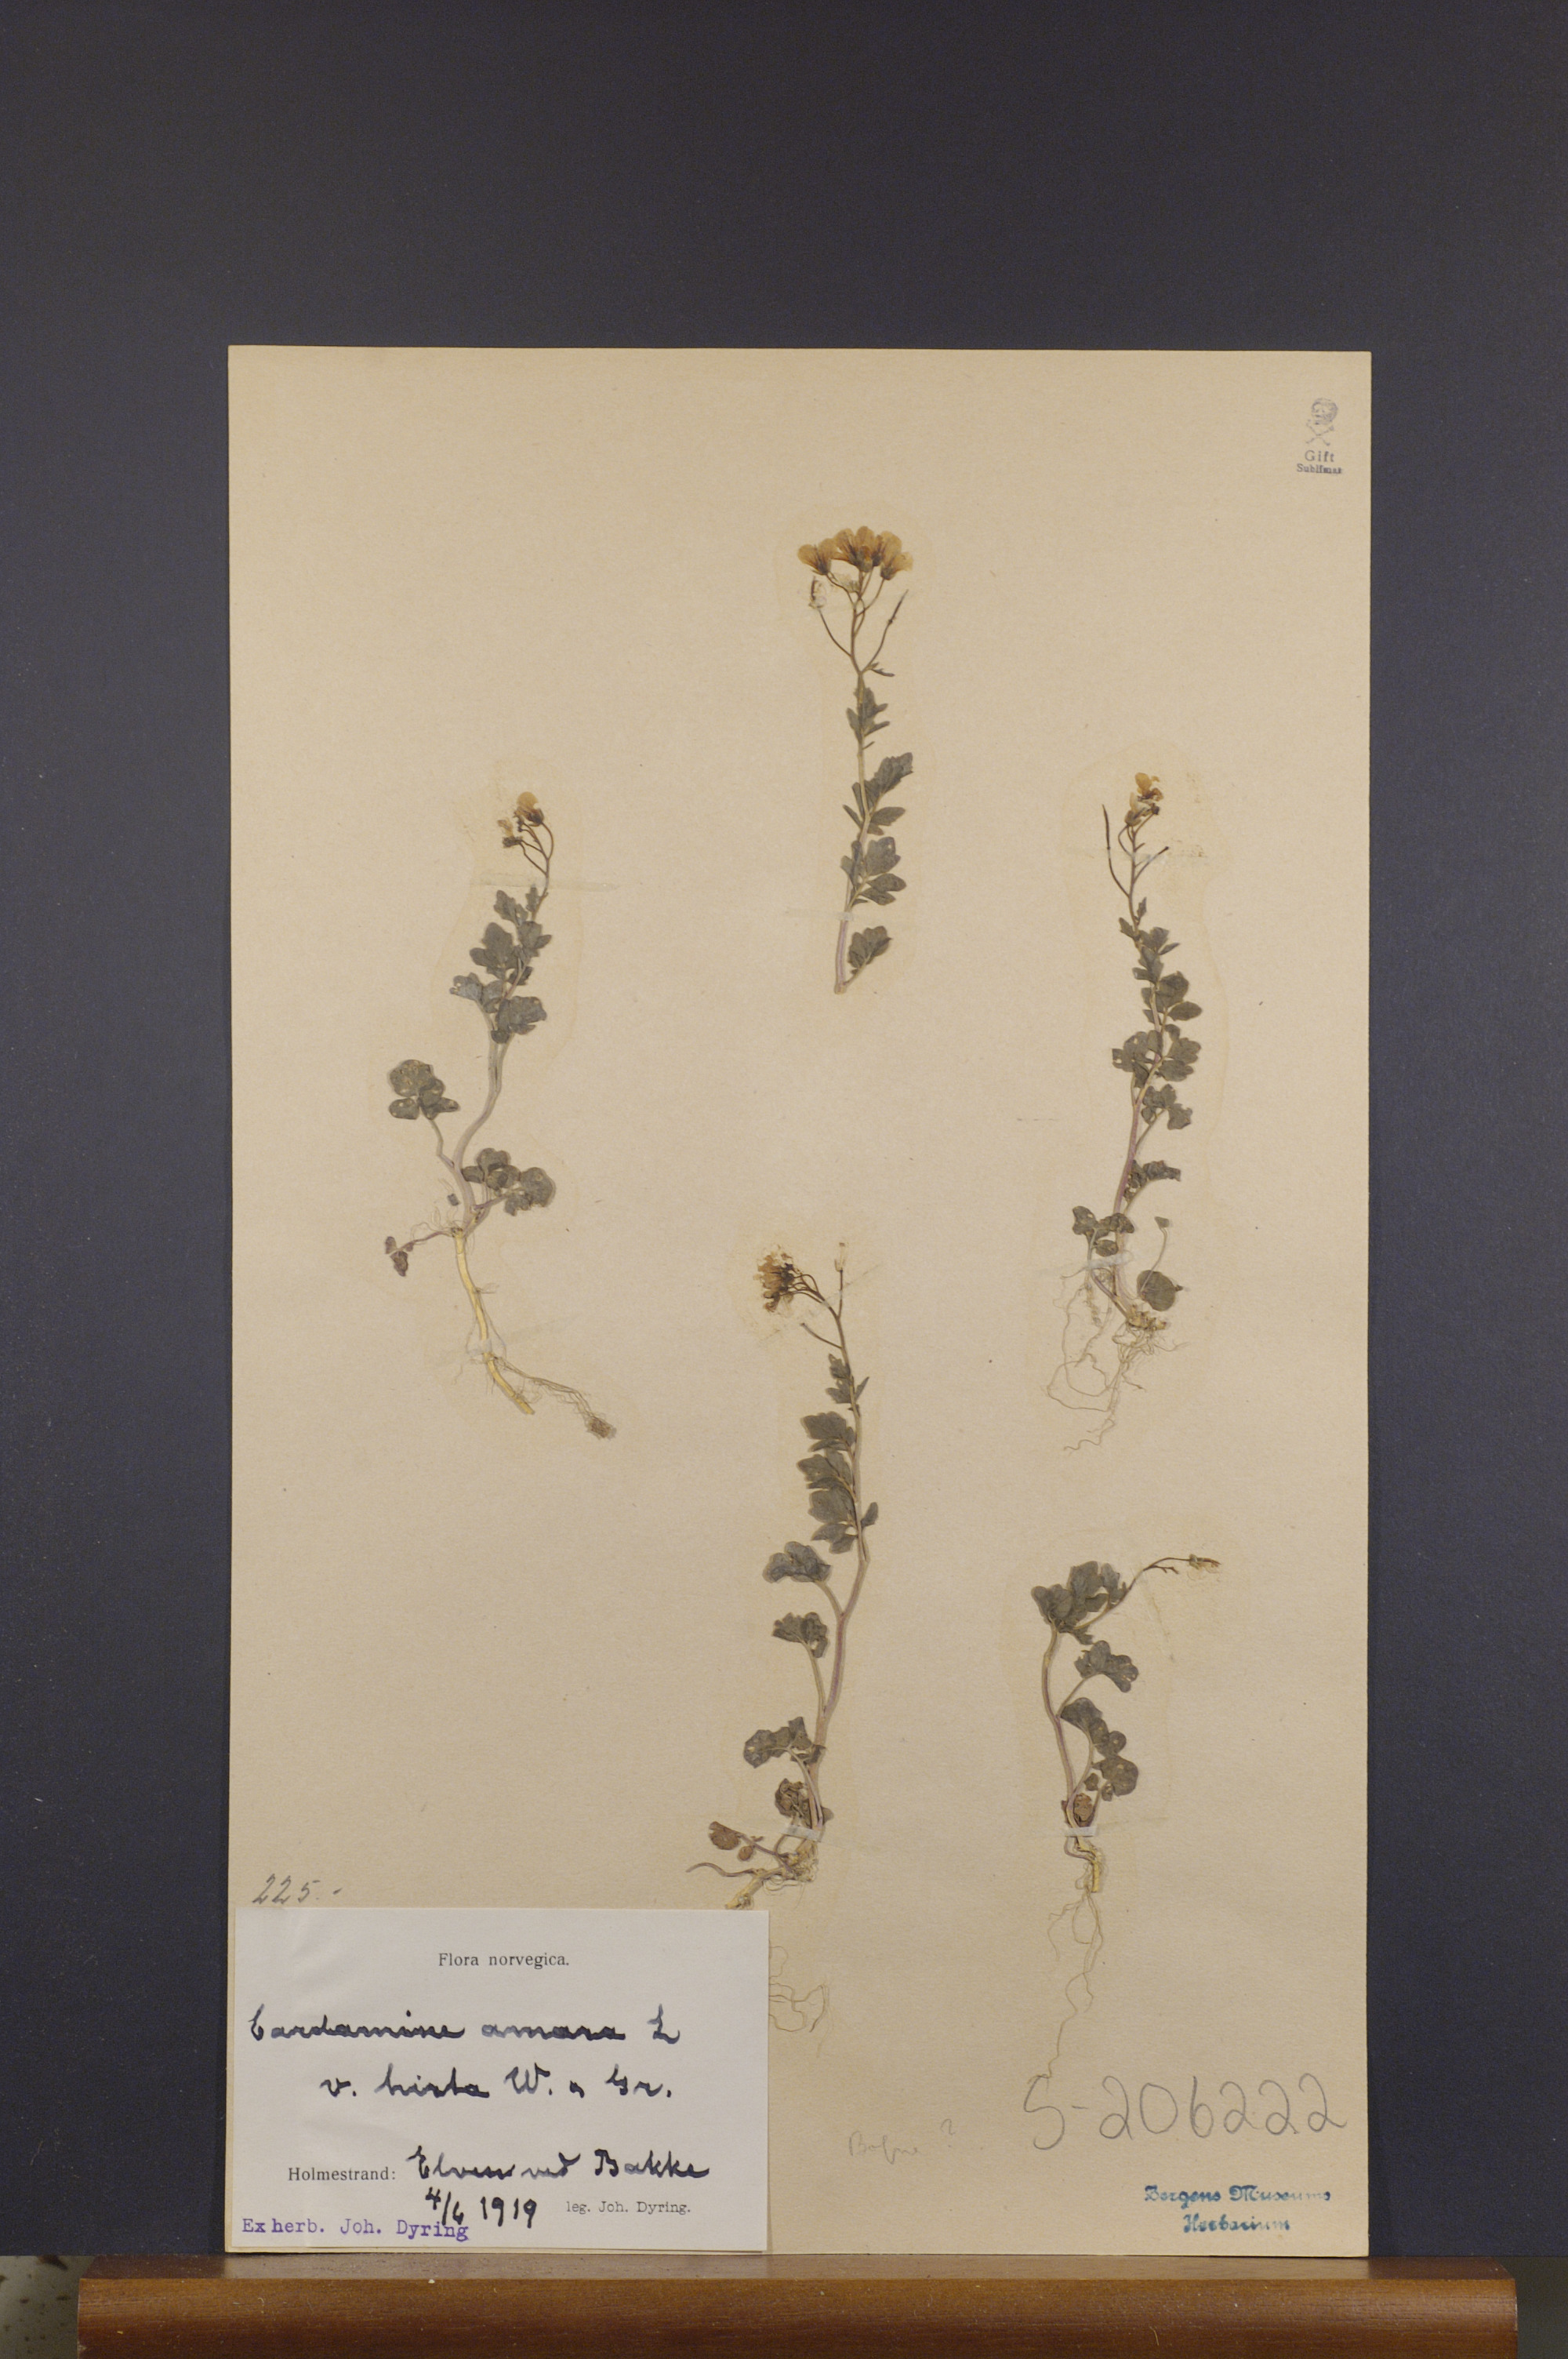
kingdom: Plantae
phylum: Tracheophyta
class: Magnoliopsida
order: Brassicales
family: Brassicaceae
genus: Cardamine
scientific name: Cardamine amara
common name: Large bitter-cress
